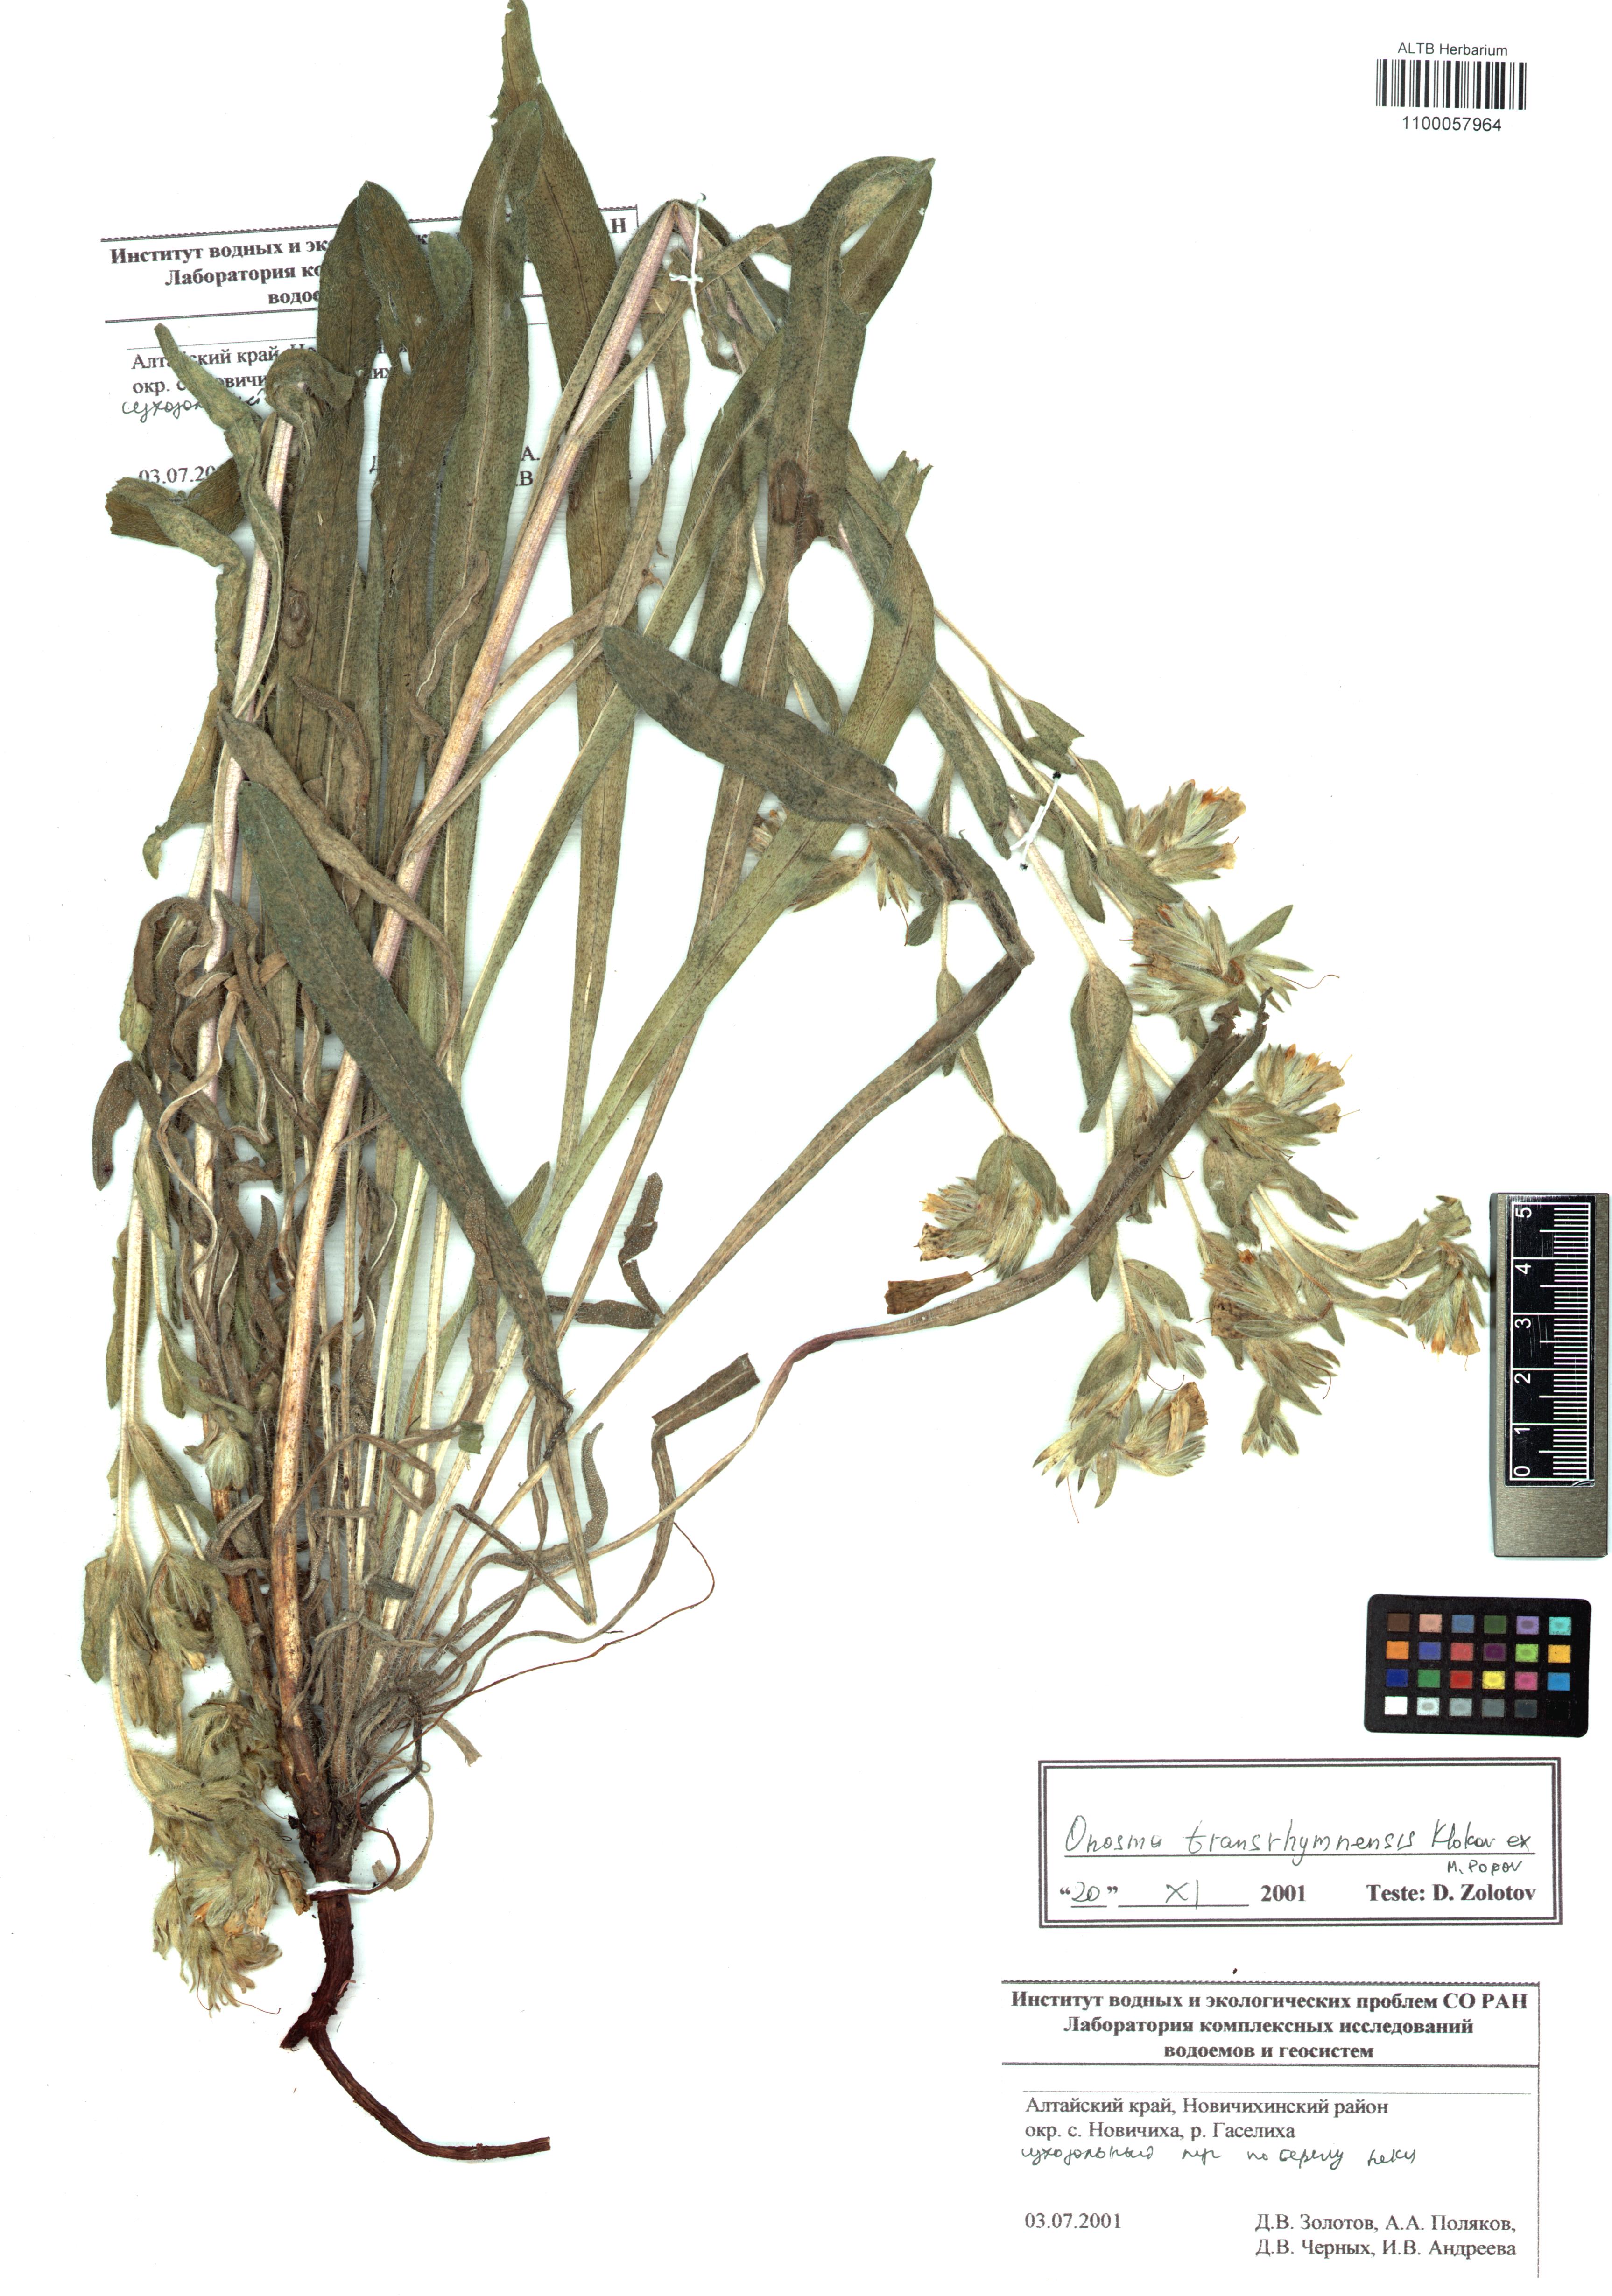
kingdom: Plantae
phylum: Tracheophyta
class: Magnoliopsida
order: Boraginales
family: Boraginaceae
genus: Onosma
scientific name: Onosma setosa
